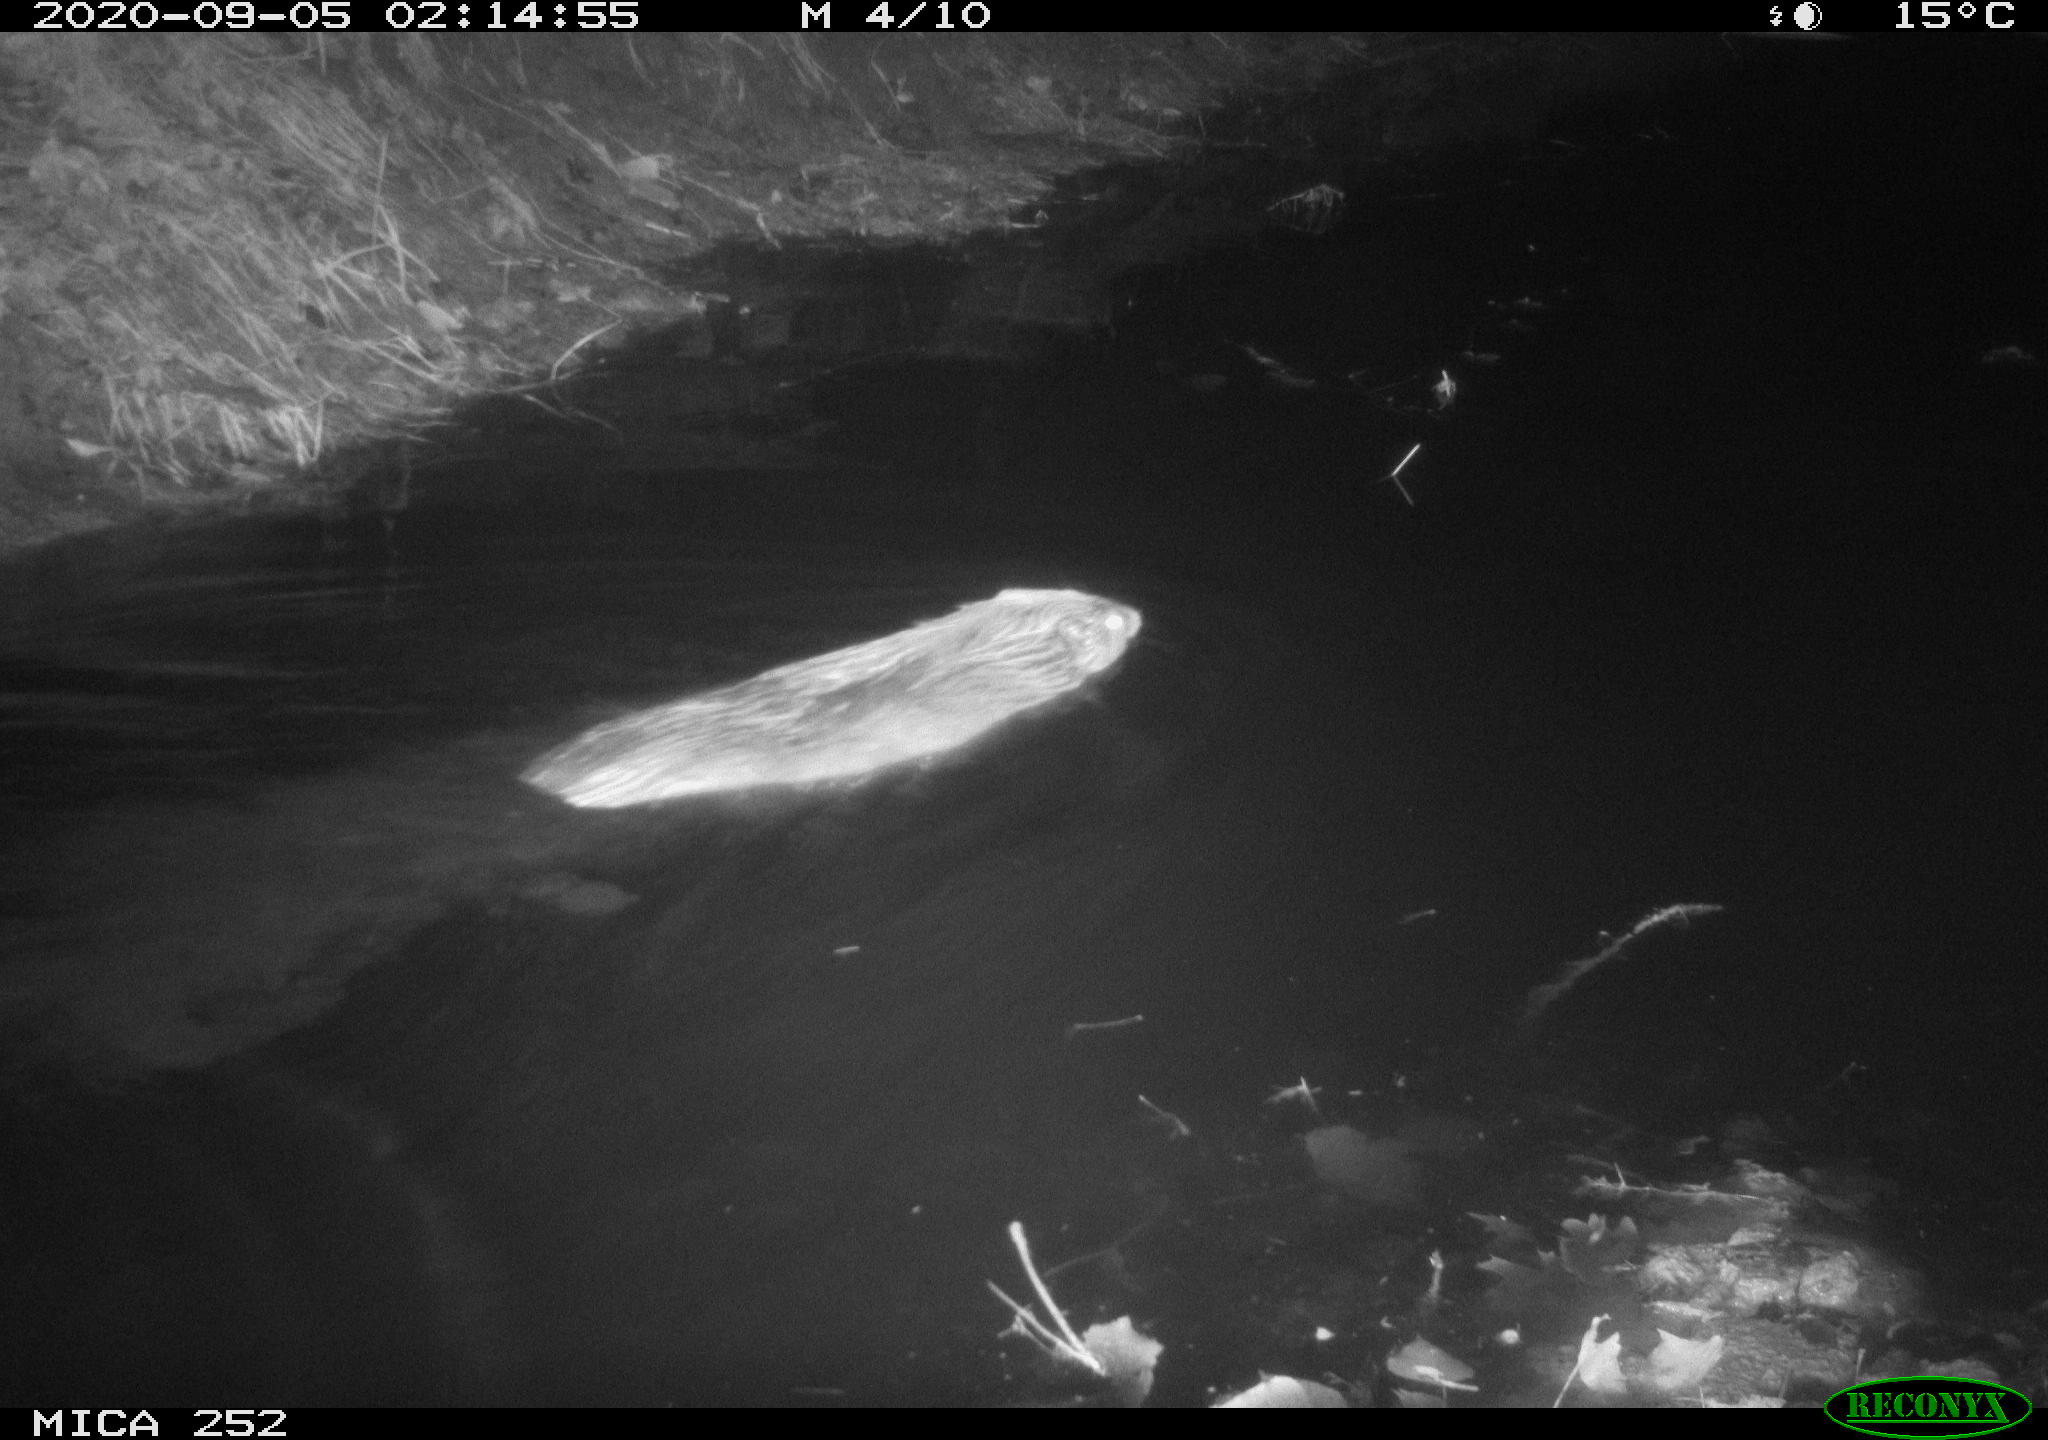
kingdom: Animalia
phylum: Chordata
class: Mammalia
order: Rodentia
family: Castoridae
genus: Castor
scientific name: Castor fiber
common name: Eurasian beaver
